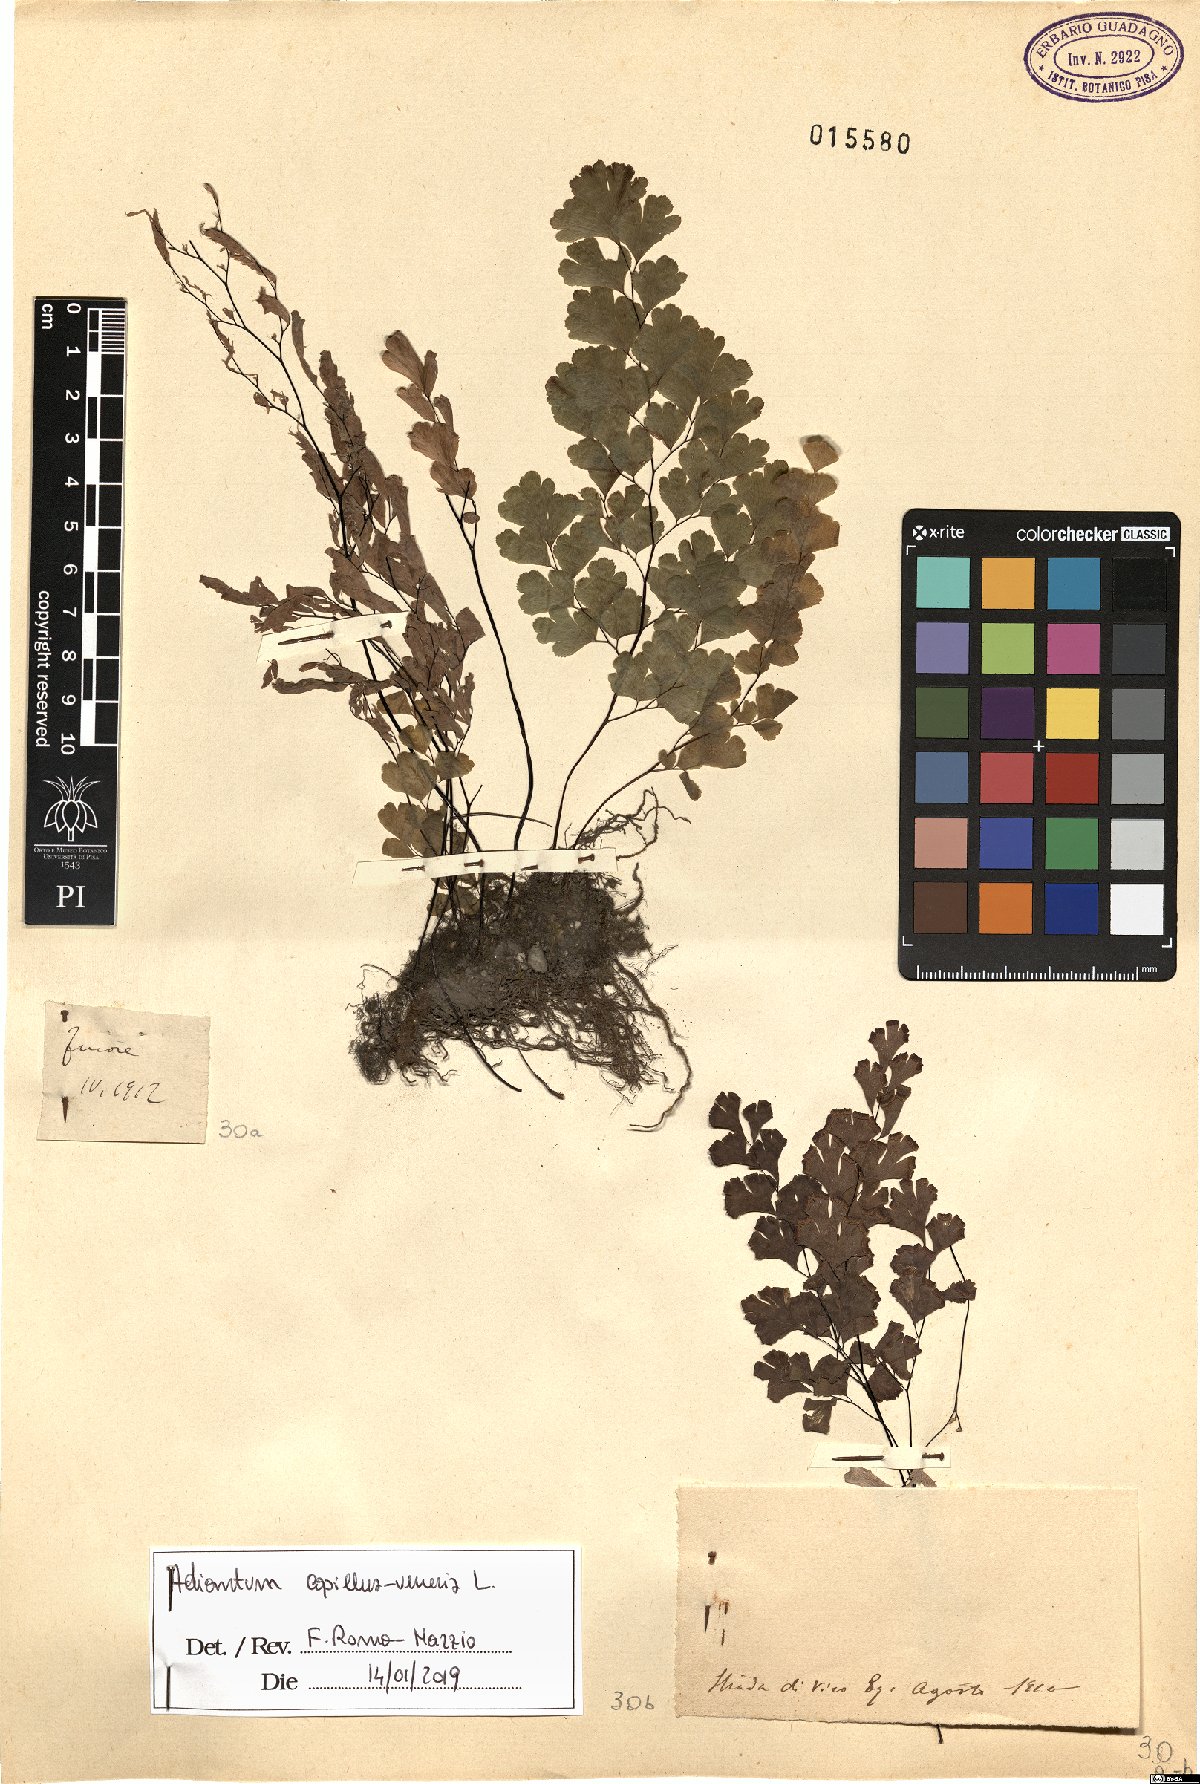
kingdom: Plantae
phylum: Tracheophyta
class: Polypodiopsida
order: Polypodiales
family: Pteridaceae
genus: Adiantum
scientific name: Adiantum capillus-veneris
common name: Maidenhair fern
